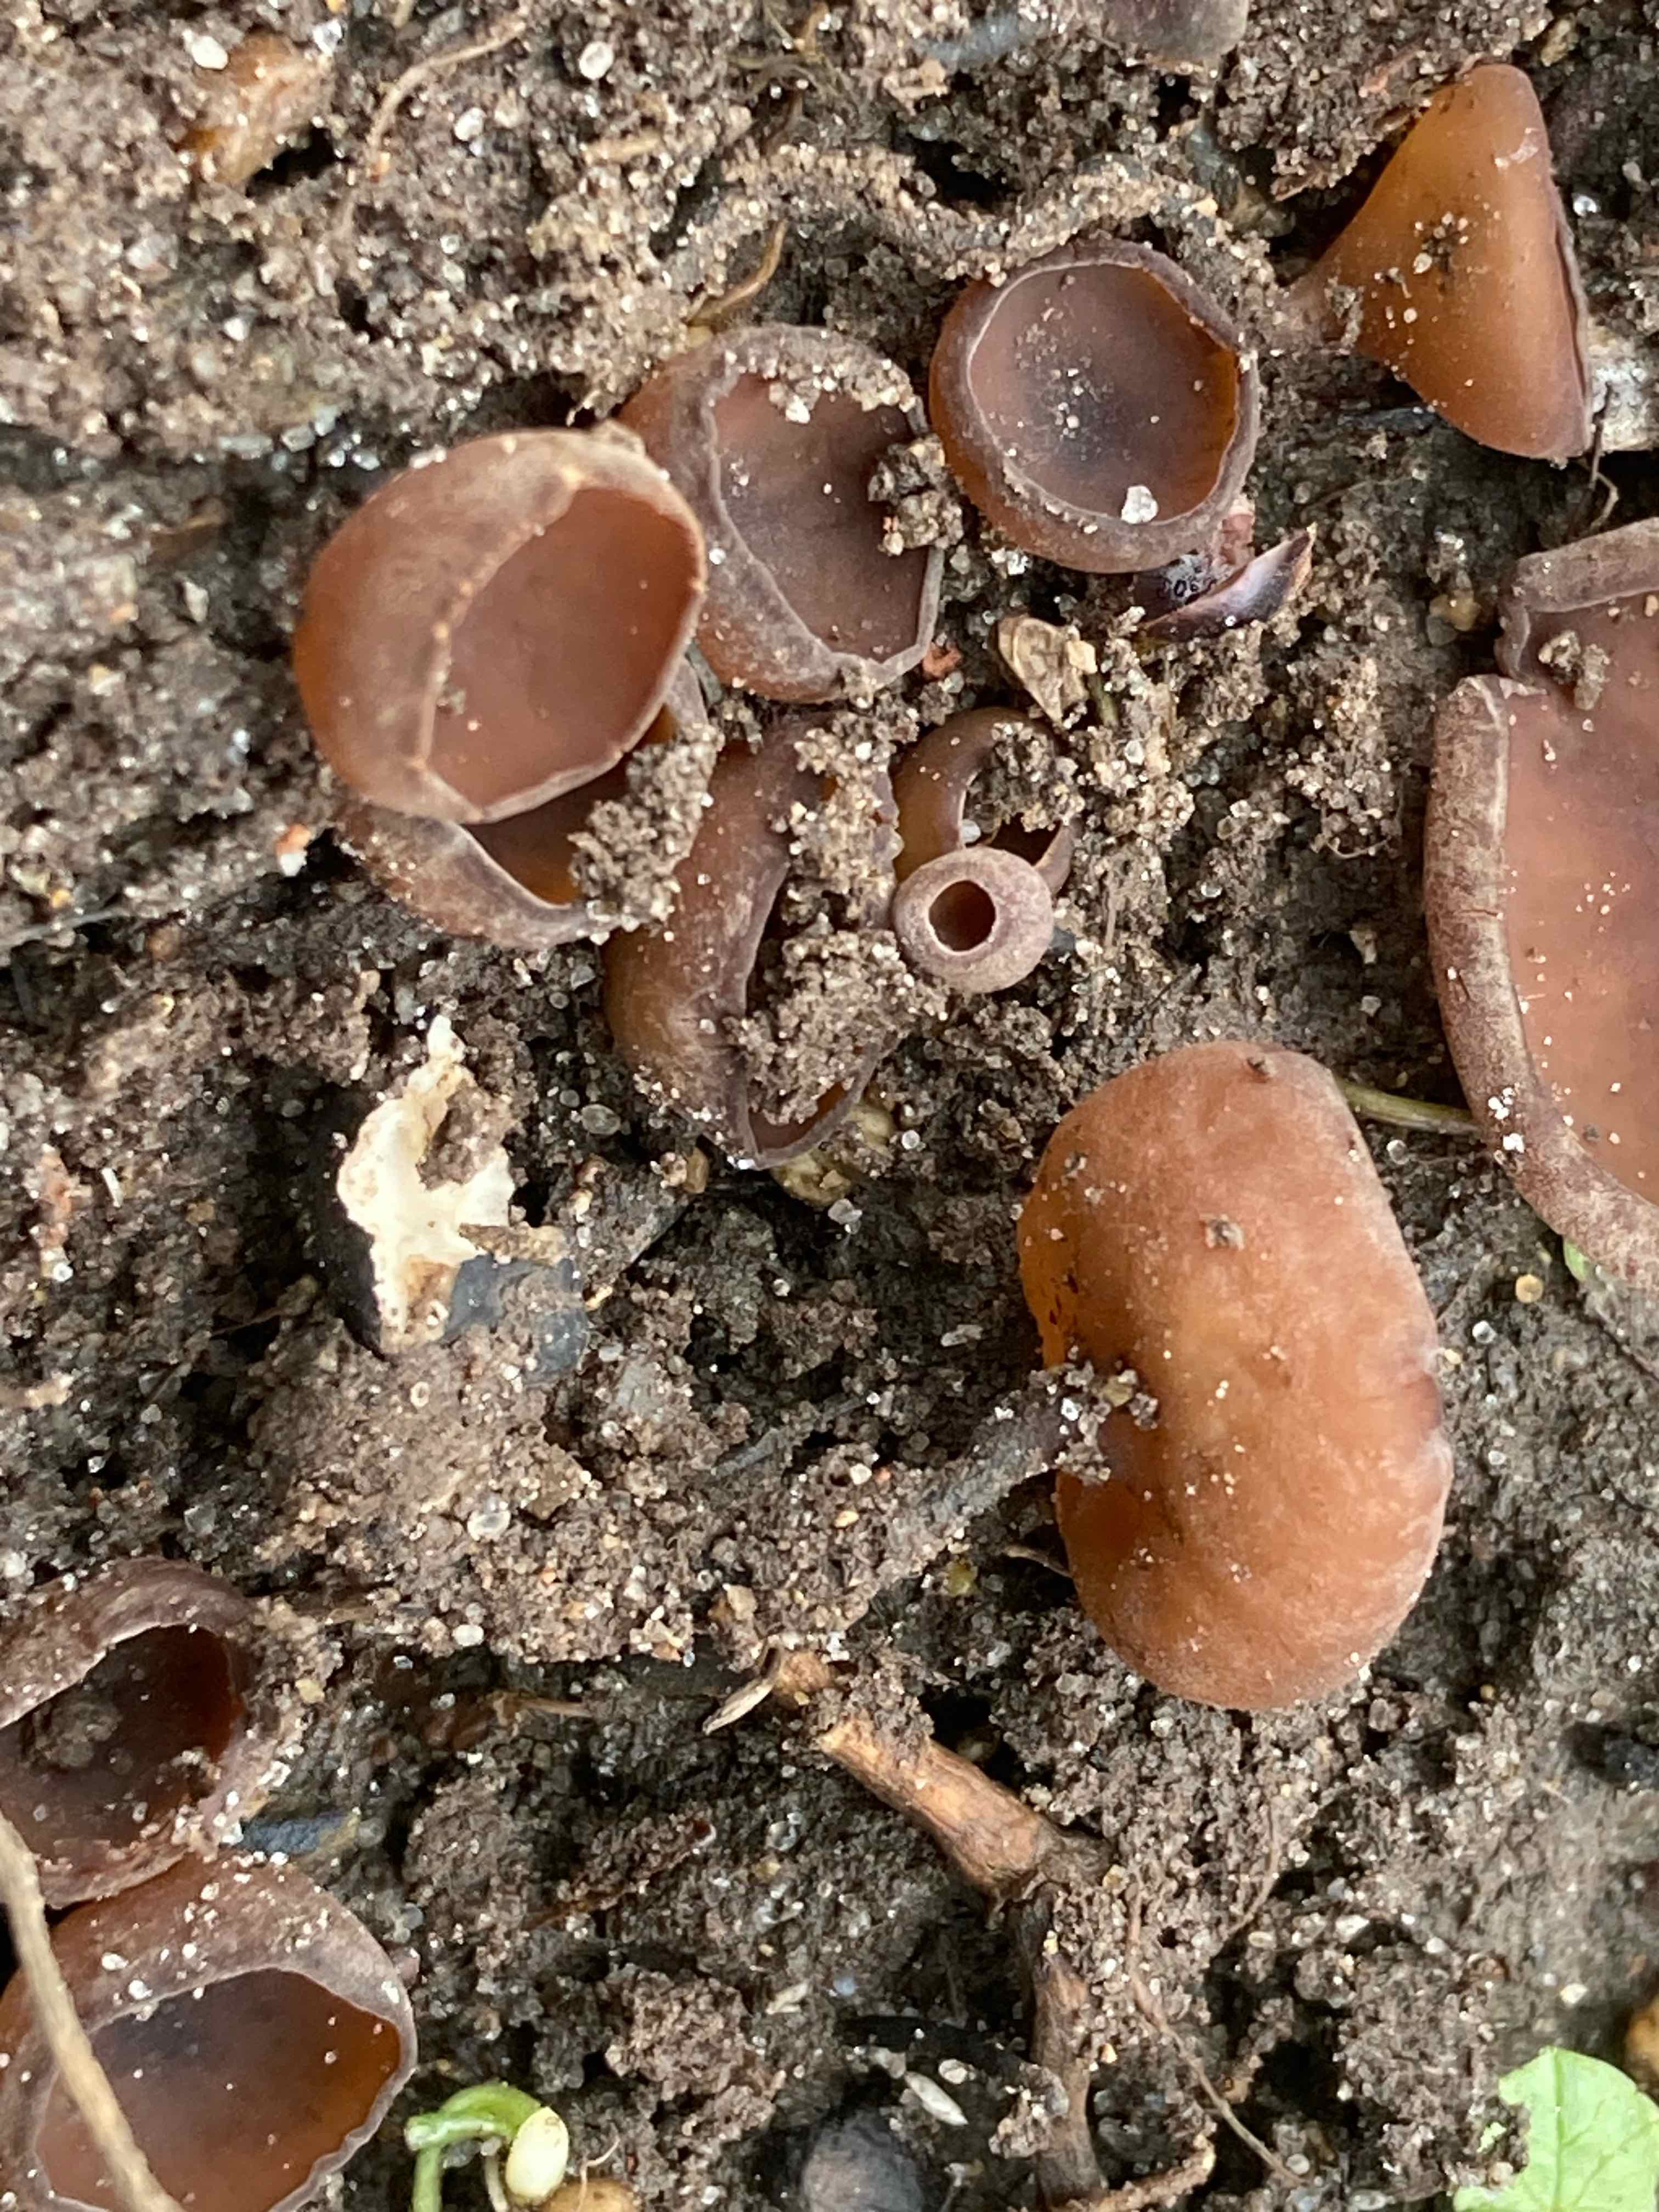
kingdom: Fungi
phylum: Ascomycota
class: Leotiomycetes
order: Helotiales
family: Sclerotiniaceae
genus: Dumontinia
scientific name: Dumontinia tuberosa
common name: anemone-knoldskive
